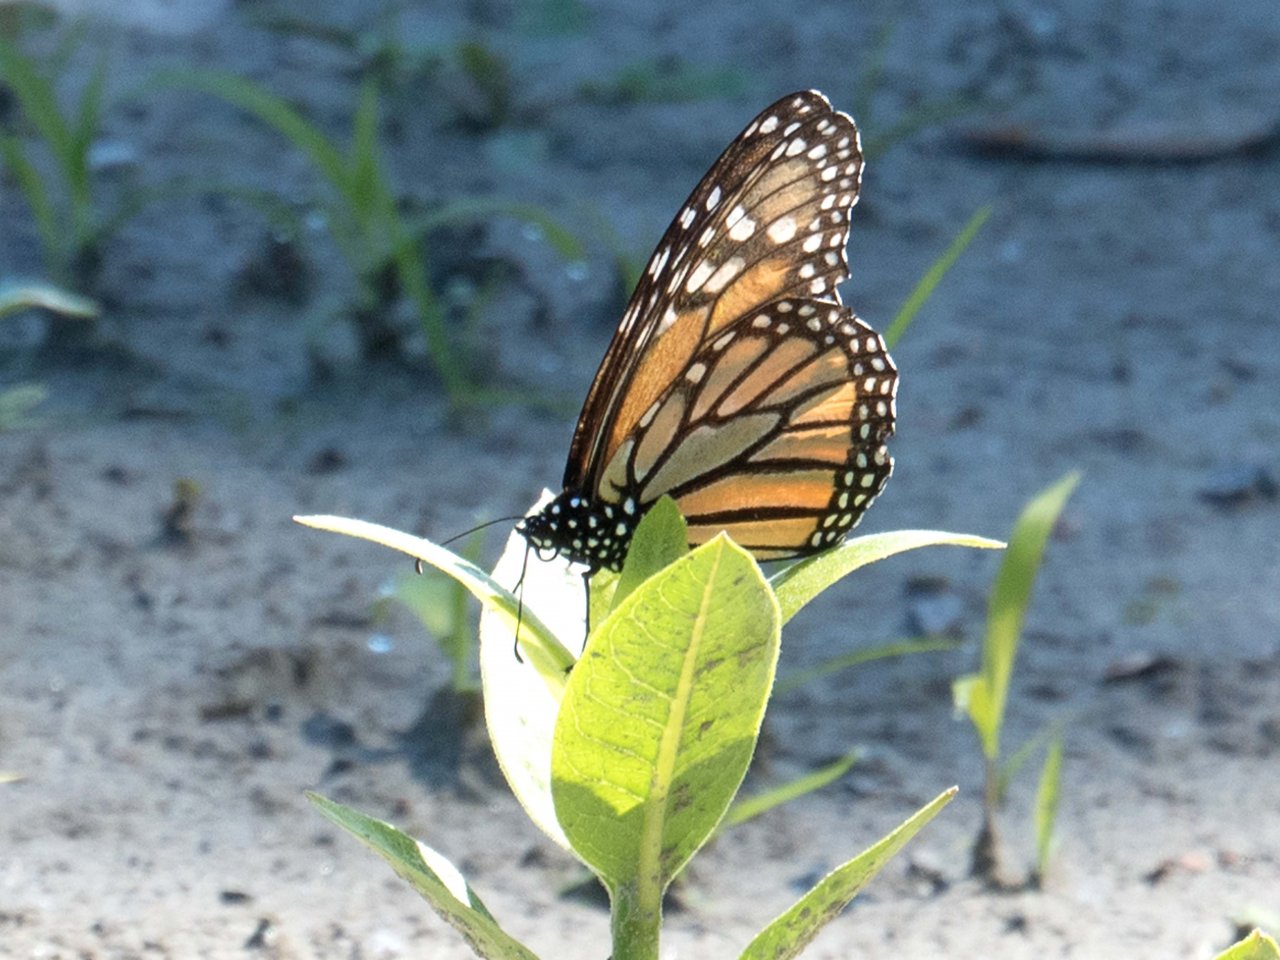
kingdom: Animalia
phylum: Arthropoda
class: Insecta
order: Lepidoptera
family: Nymphalidae
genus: Danaus
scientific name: Danaus plexippus
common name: Monarch
